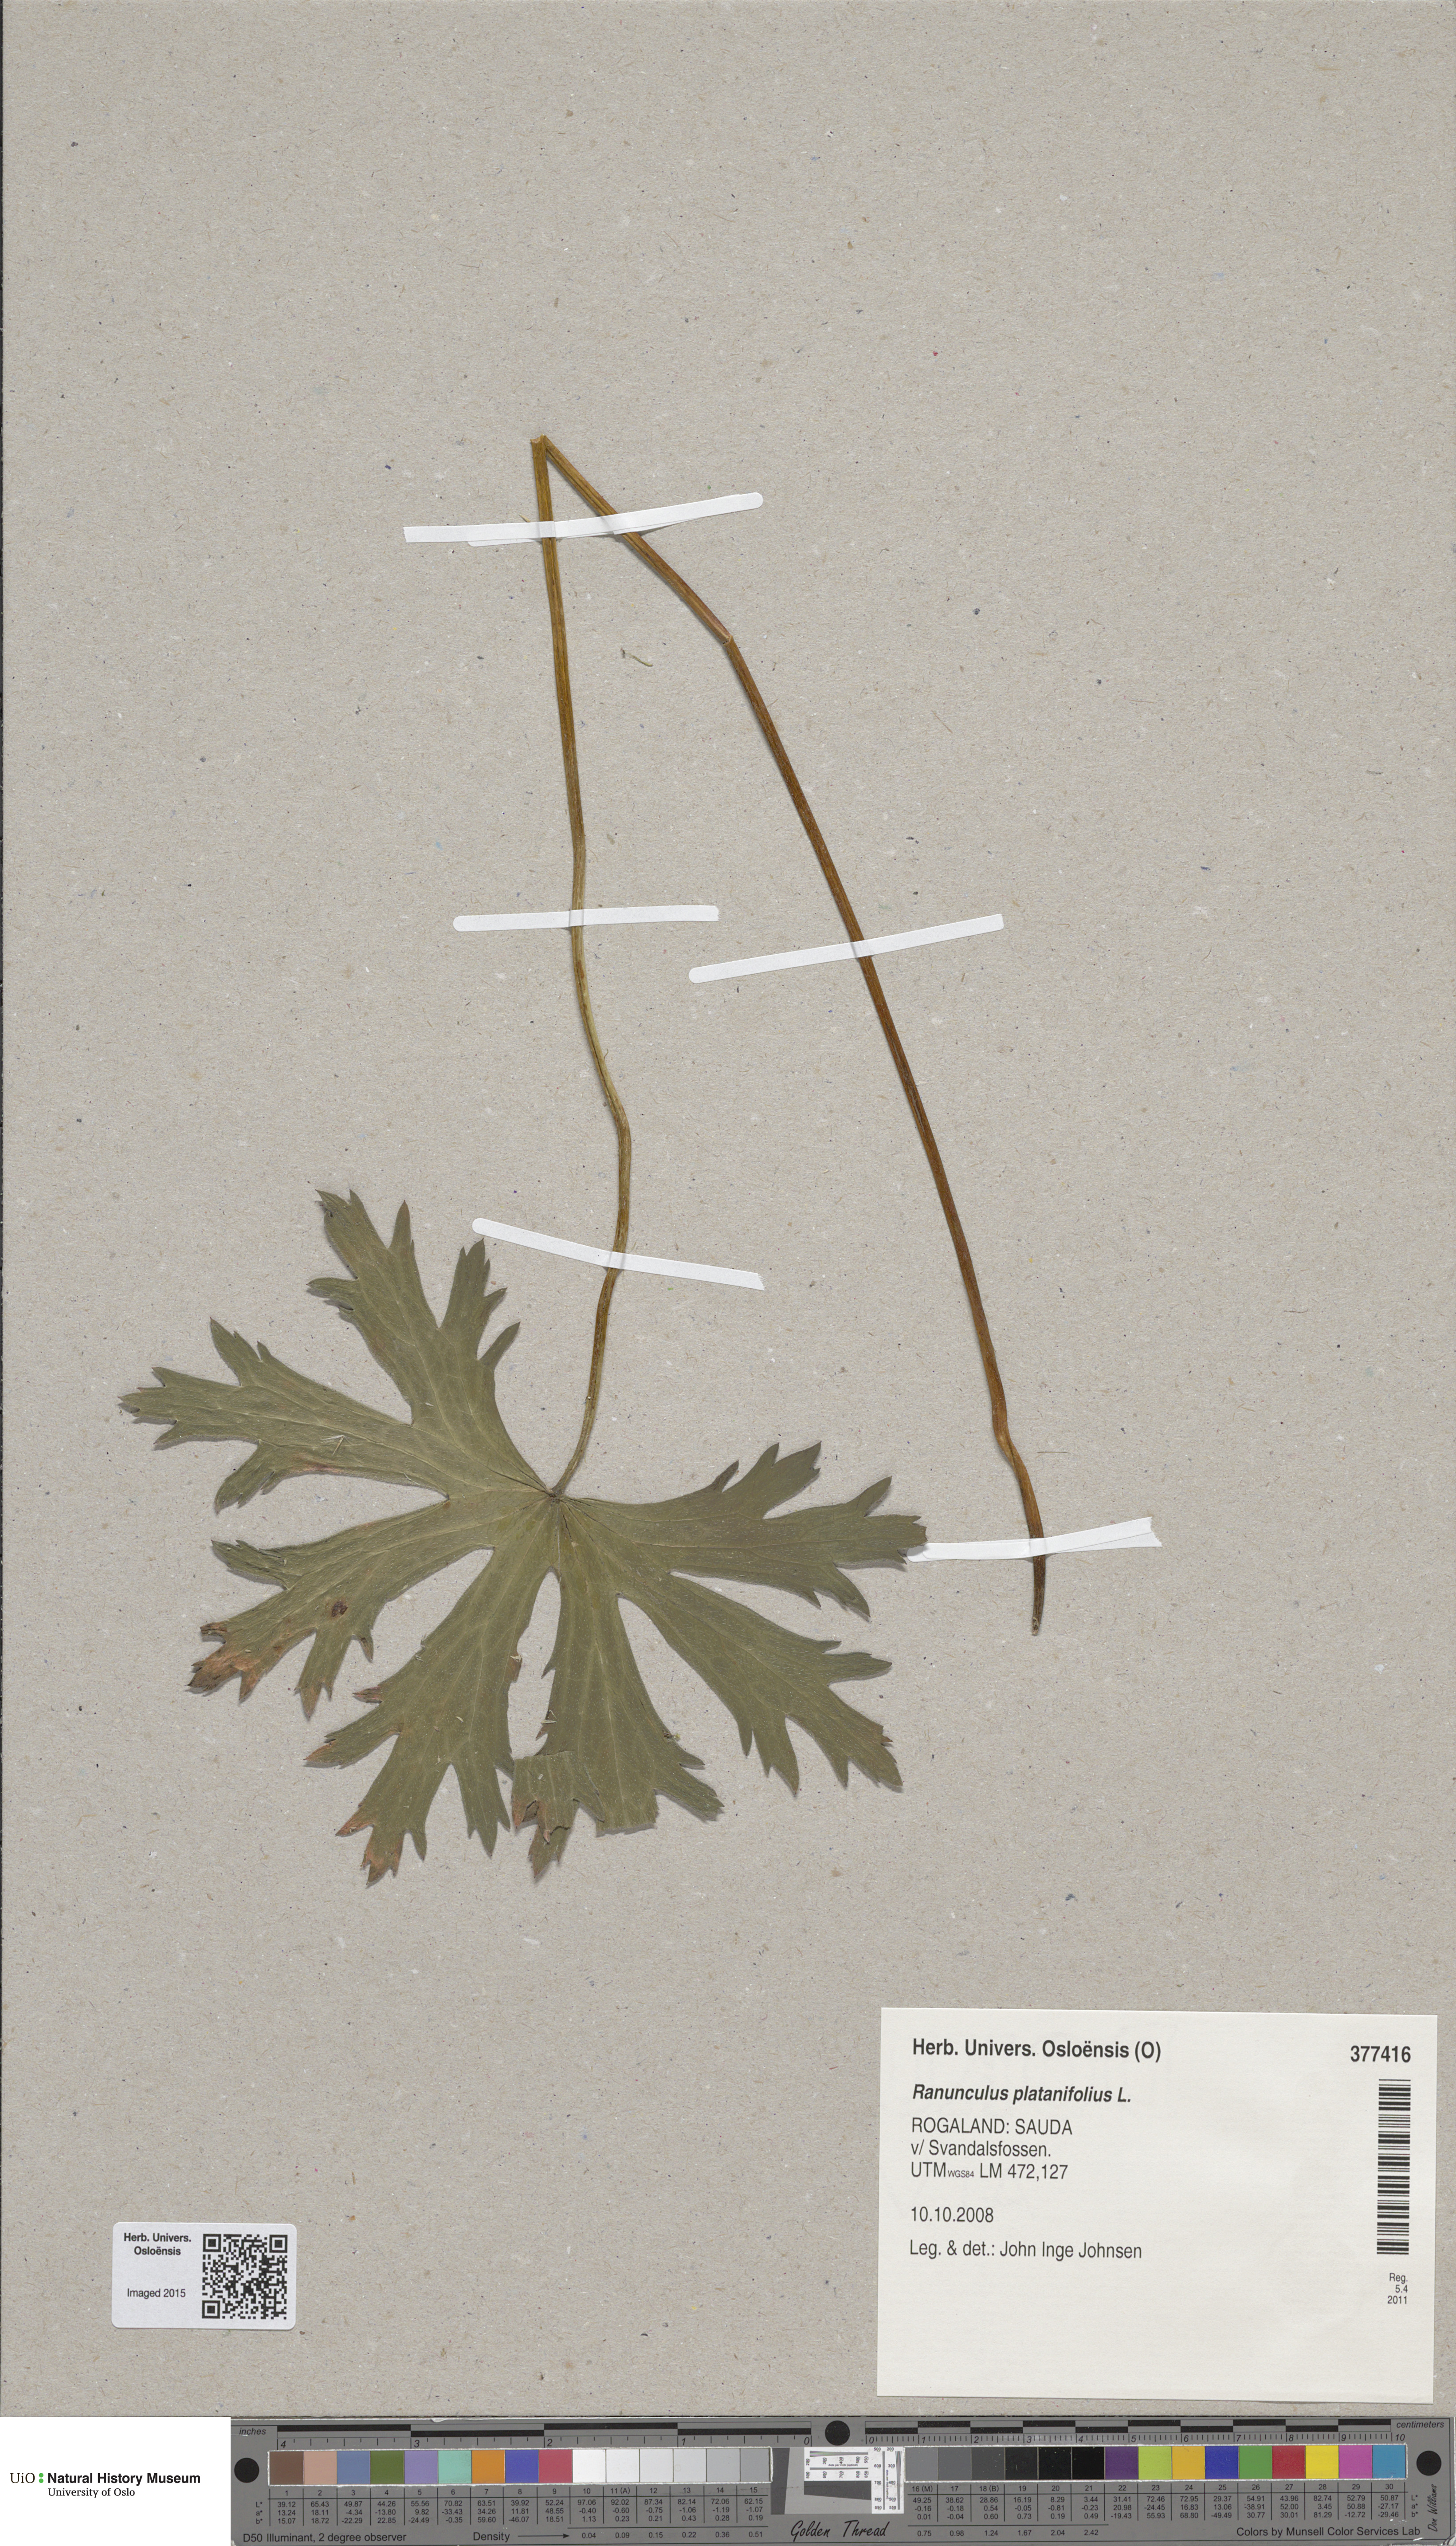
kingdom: Plantae
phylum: Tracheophyta
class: Magnoliopsida
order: Ranunculales
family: Ranunculaceae
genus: Ranunculus
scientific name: Ranunculus platanifolius
